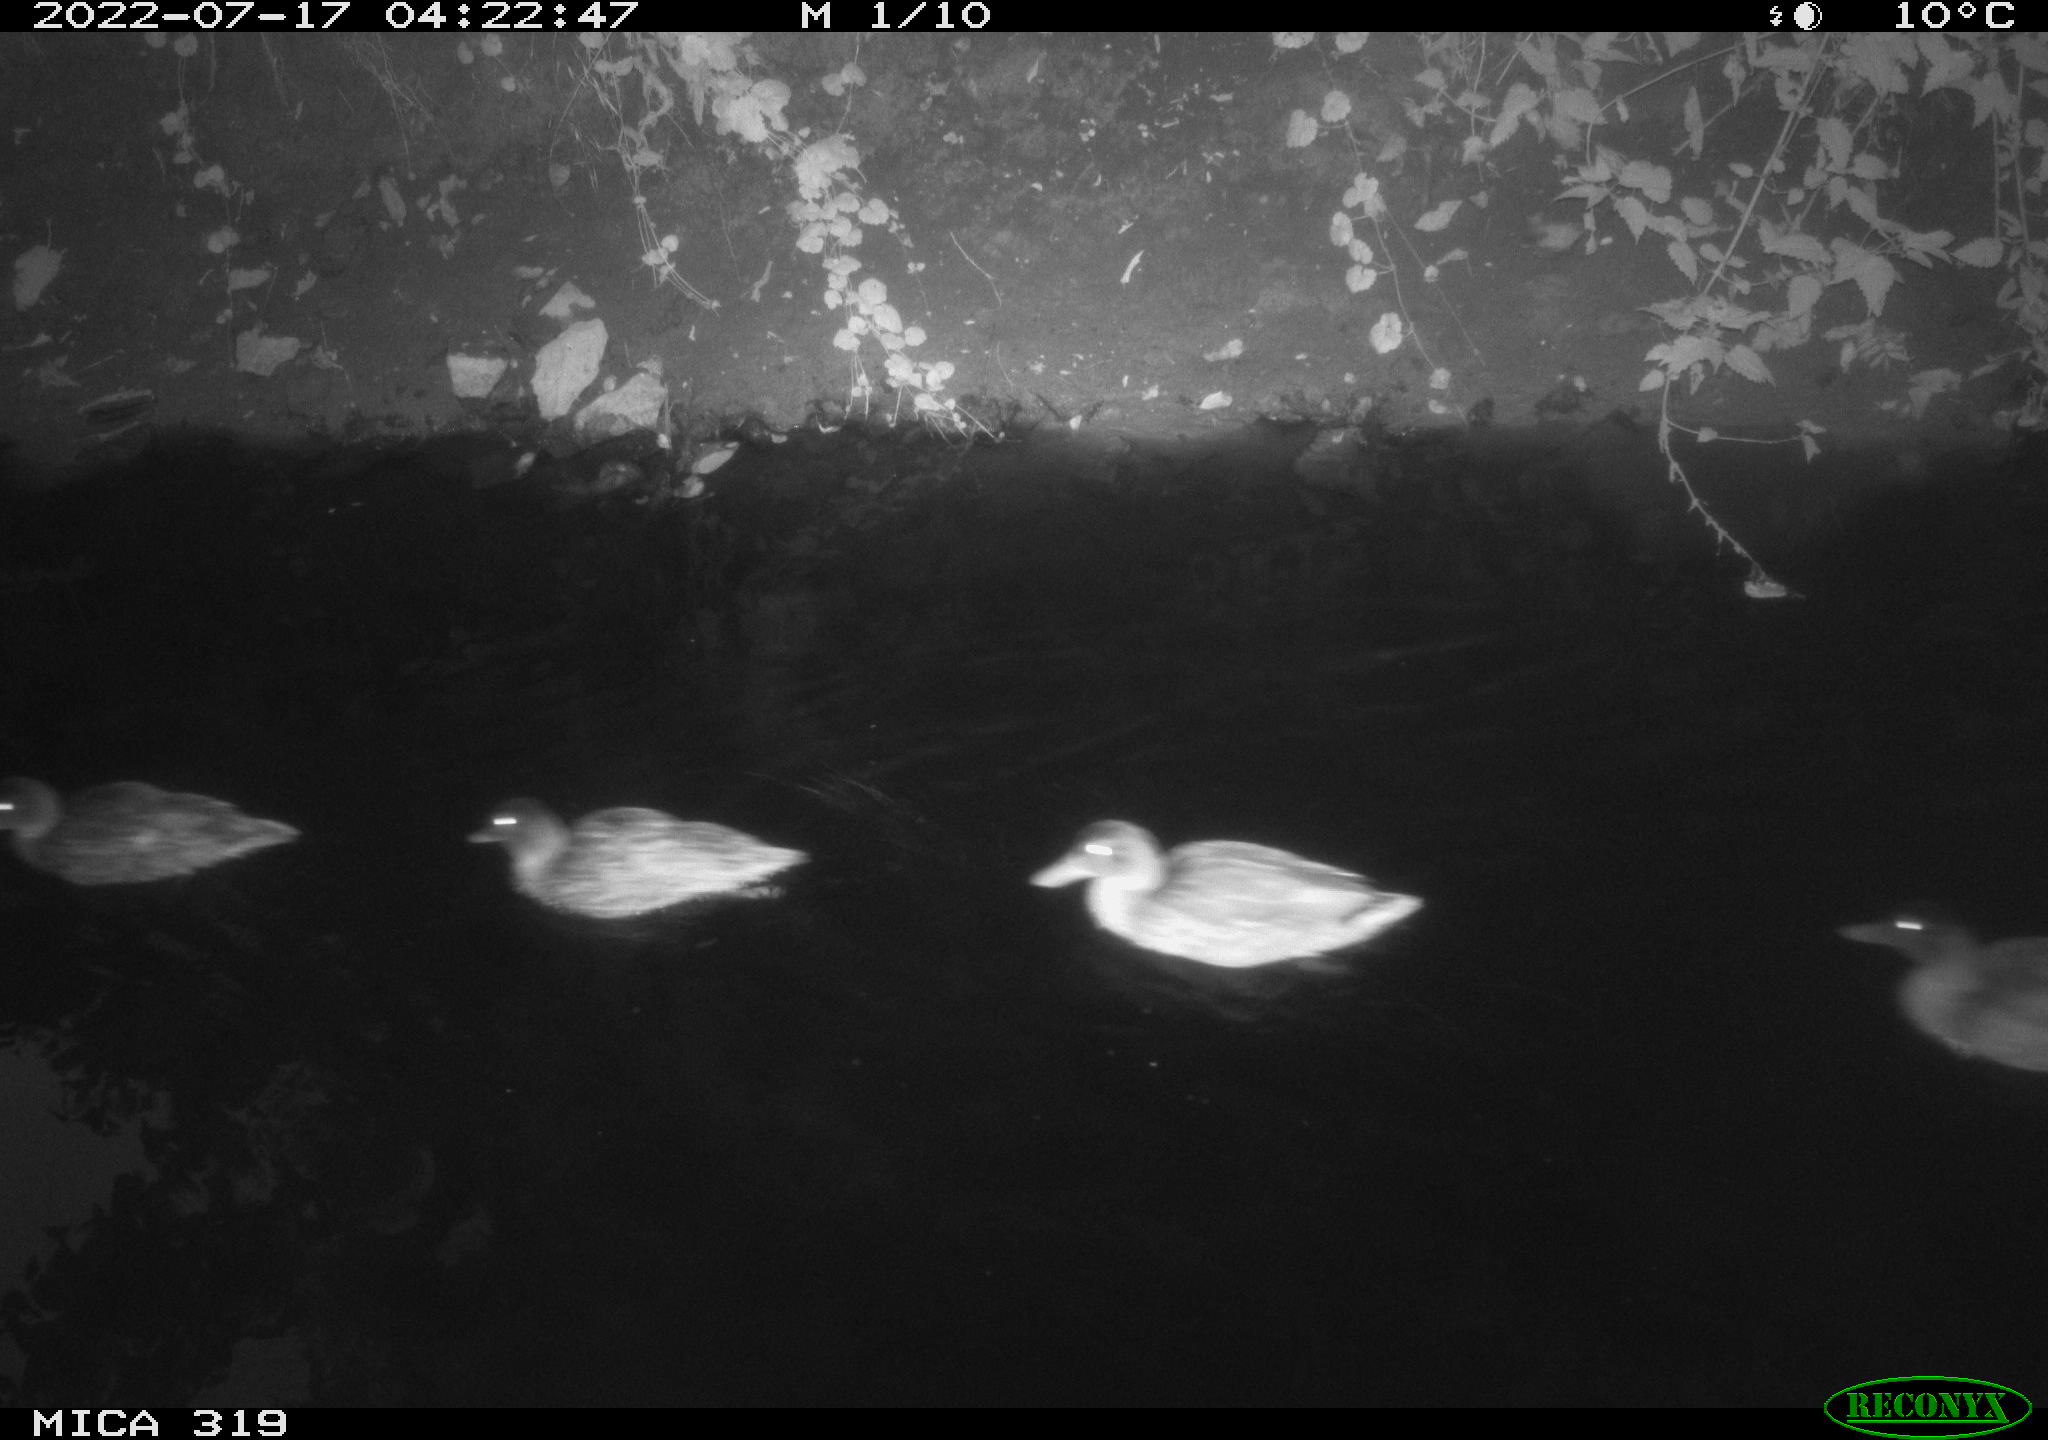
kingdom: Animalia
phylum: Chordata
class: Aves
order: Anseriformes
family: Anatidae
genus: Anas
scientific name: Anas platyrhynchos
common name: Mallard
